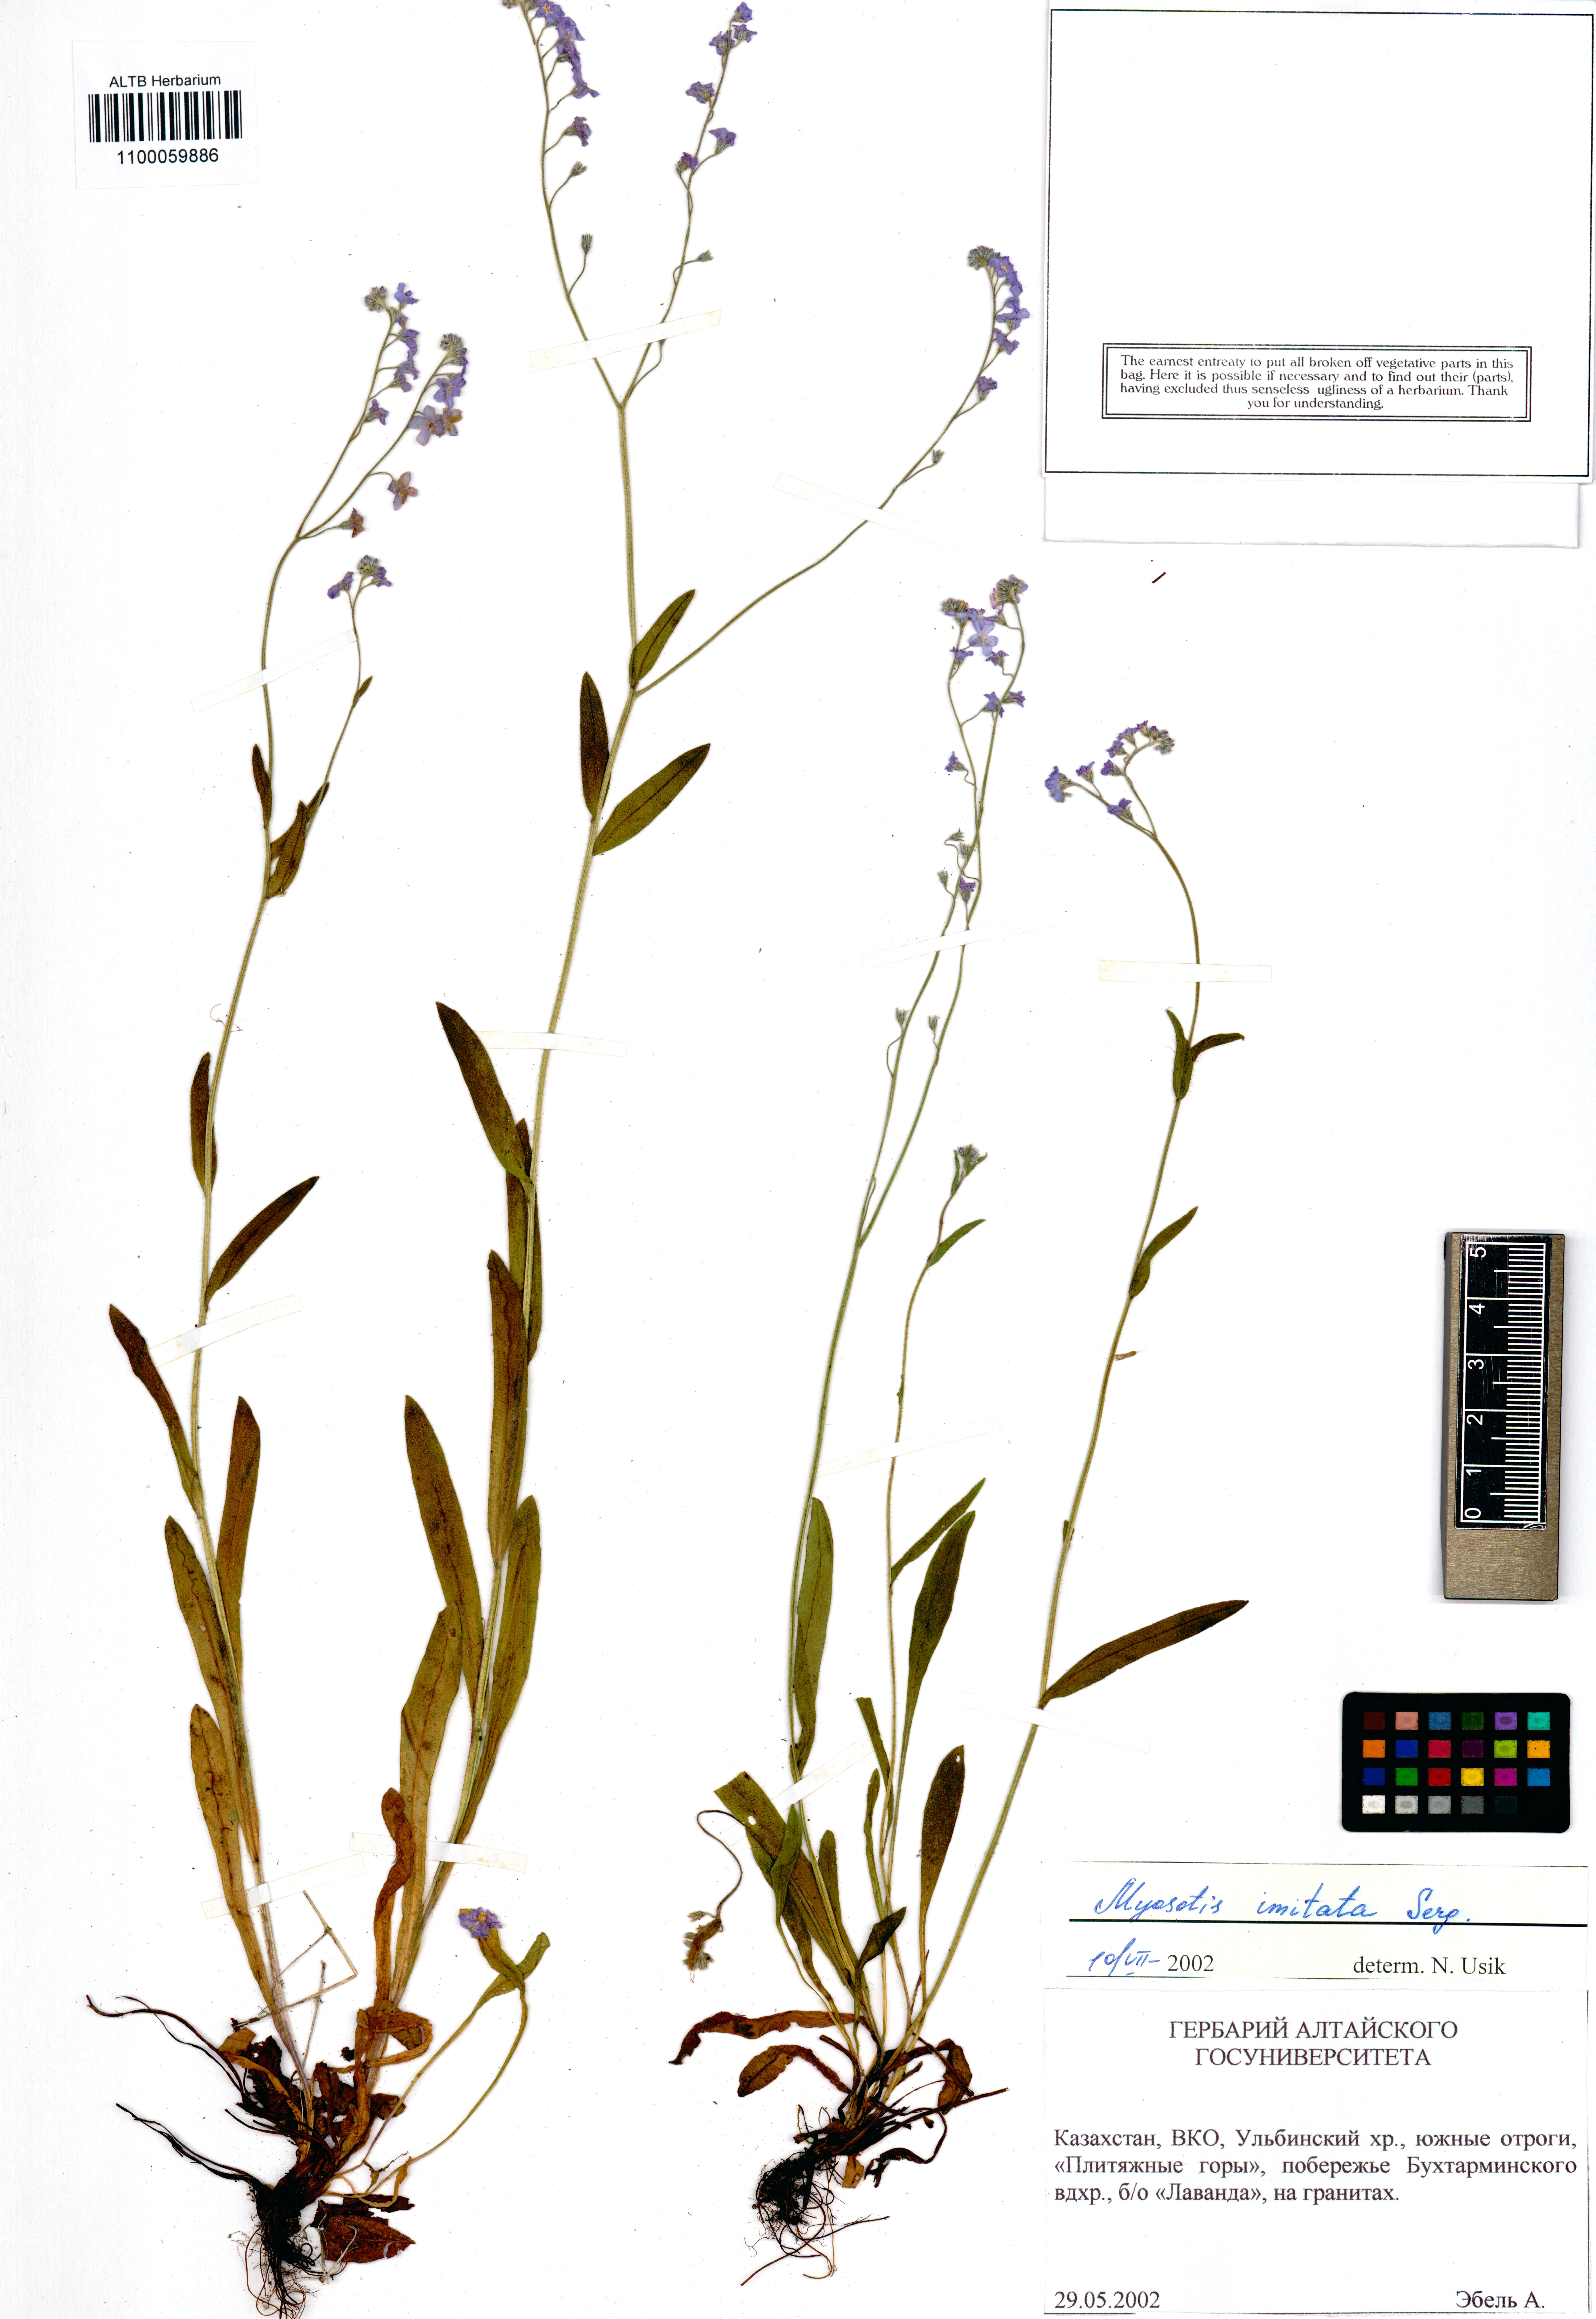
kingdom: Plantae
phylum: Tracheophyta
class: Magnoliopsida
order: Boraginales
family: Boraginaceae
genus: Myosotis
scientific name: Myosotis imitata
